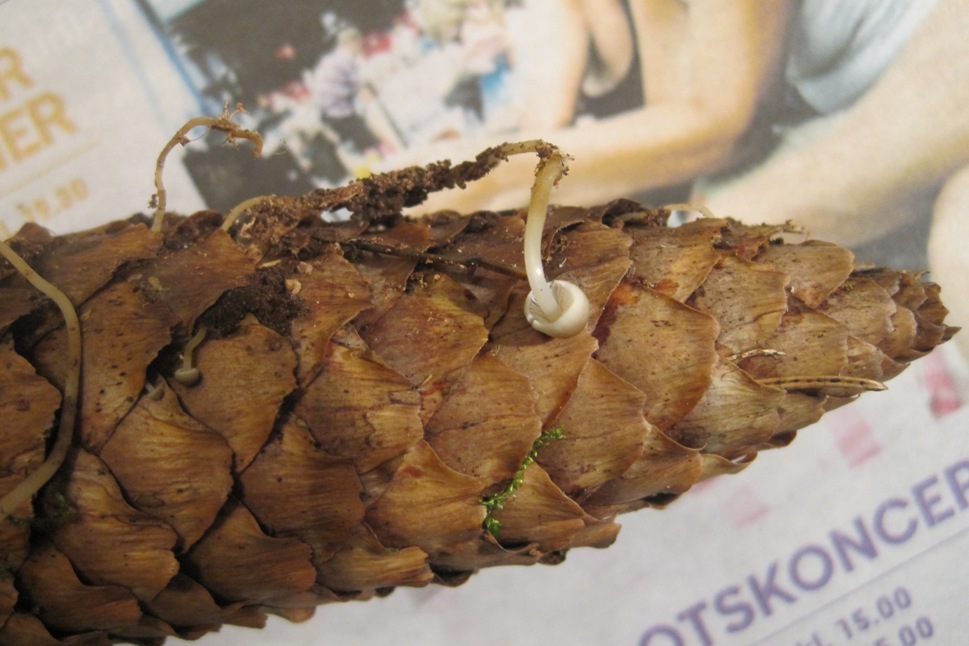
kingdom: Fungi
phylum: Basidiomycota
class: Agaricomycetes
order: Agaricales
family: Physalacriaceae
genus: Strobilurus
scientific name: Strobilurus esculentus
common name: gran-koglehat
